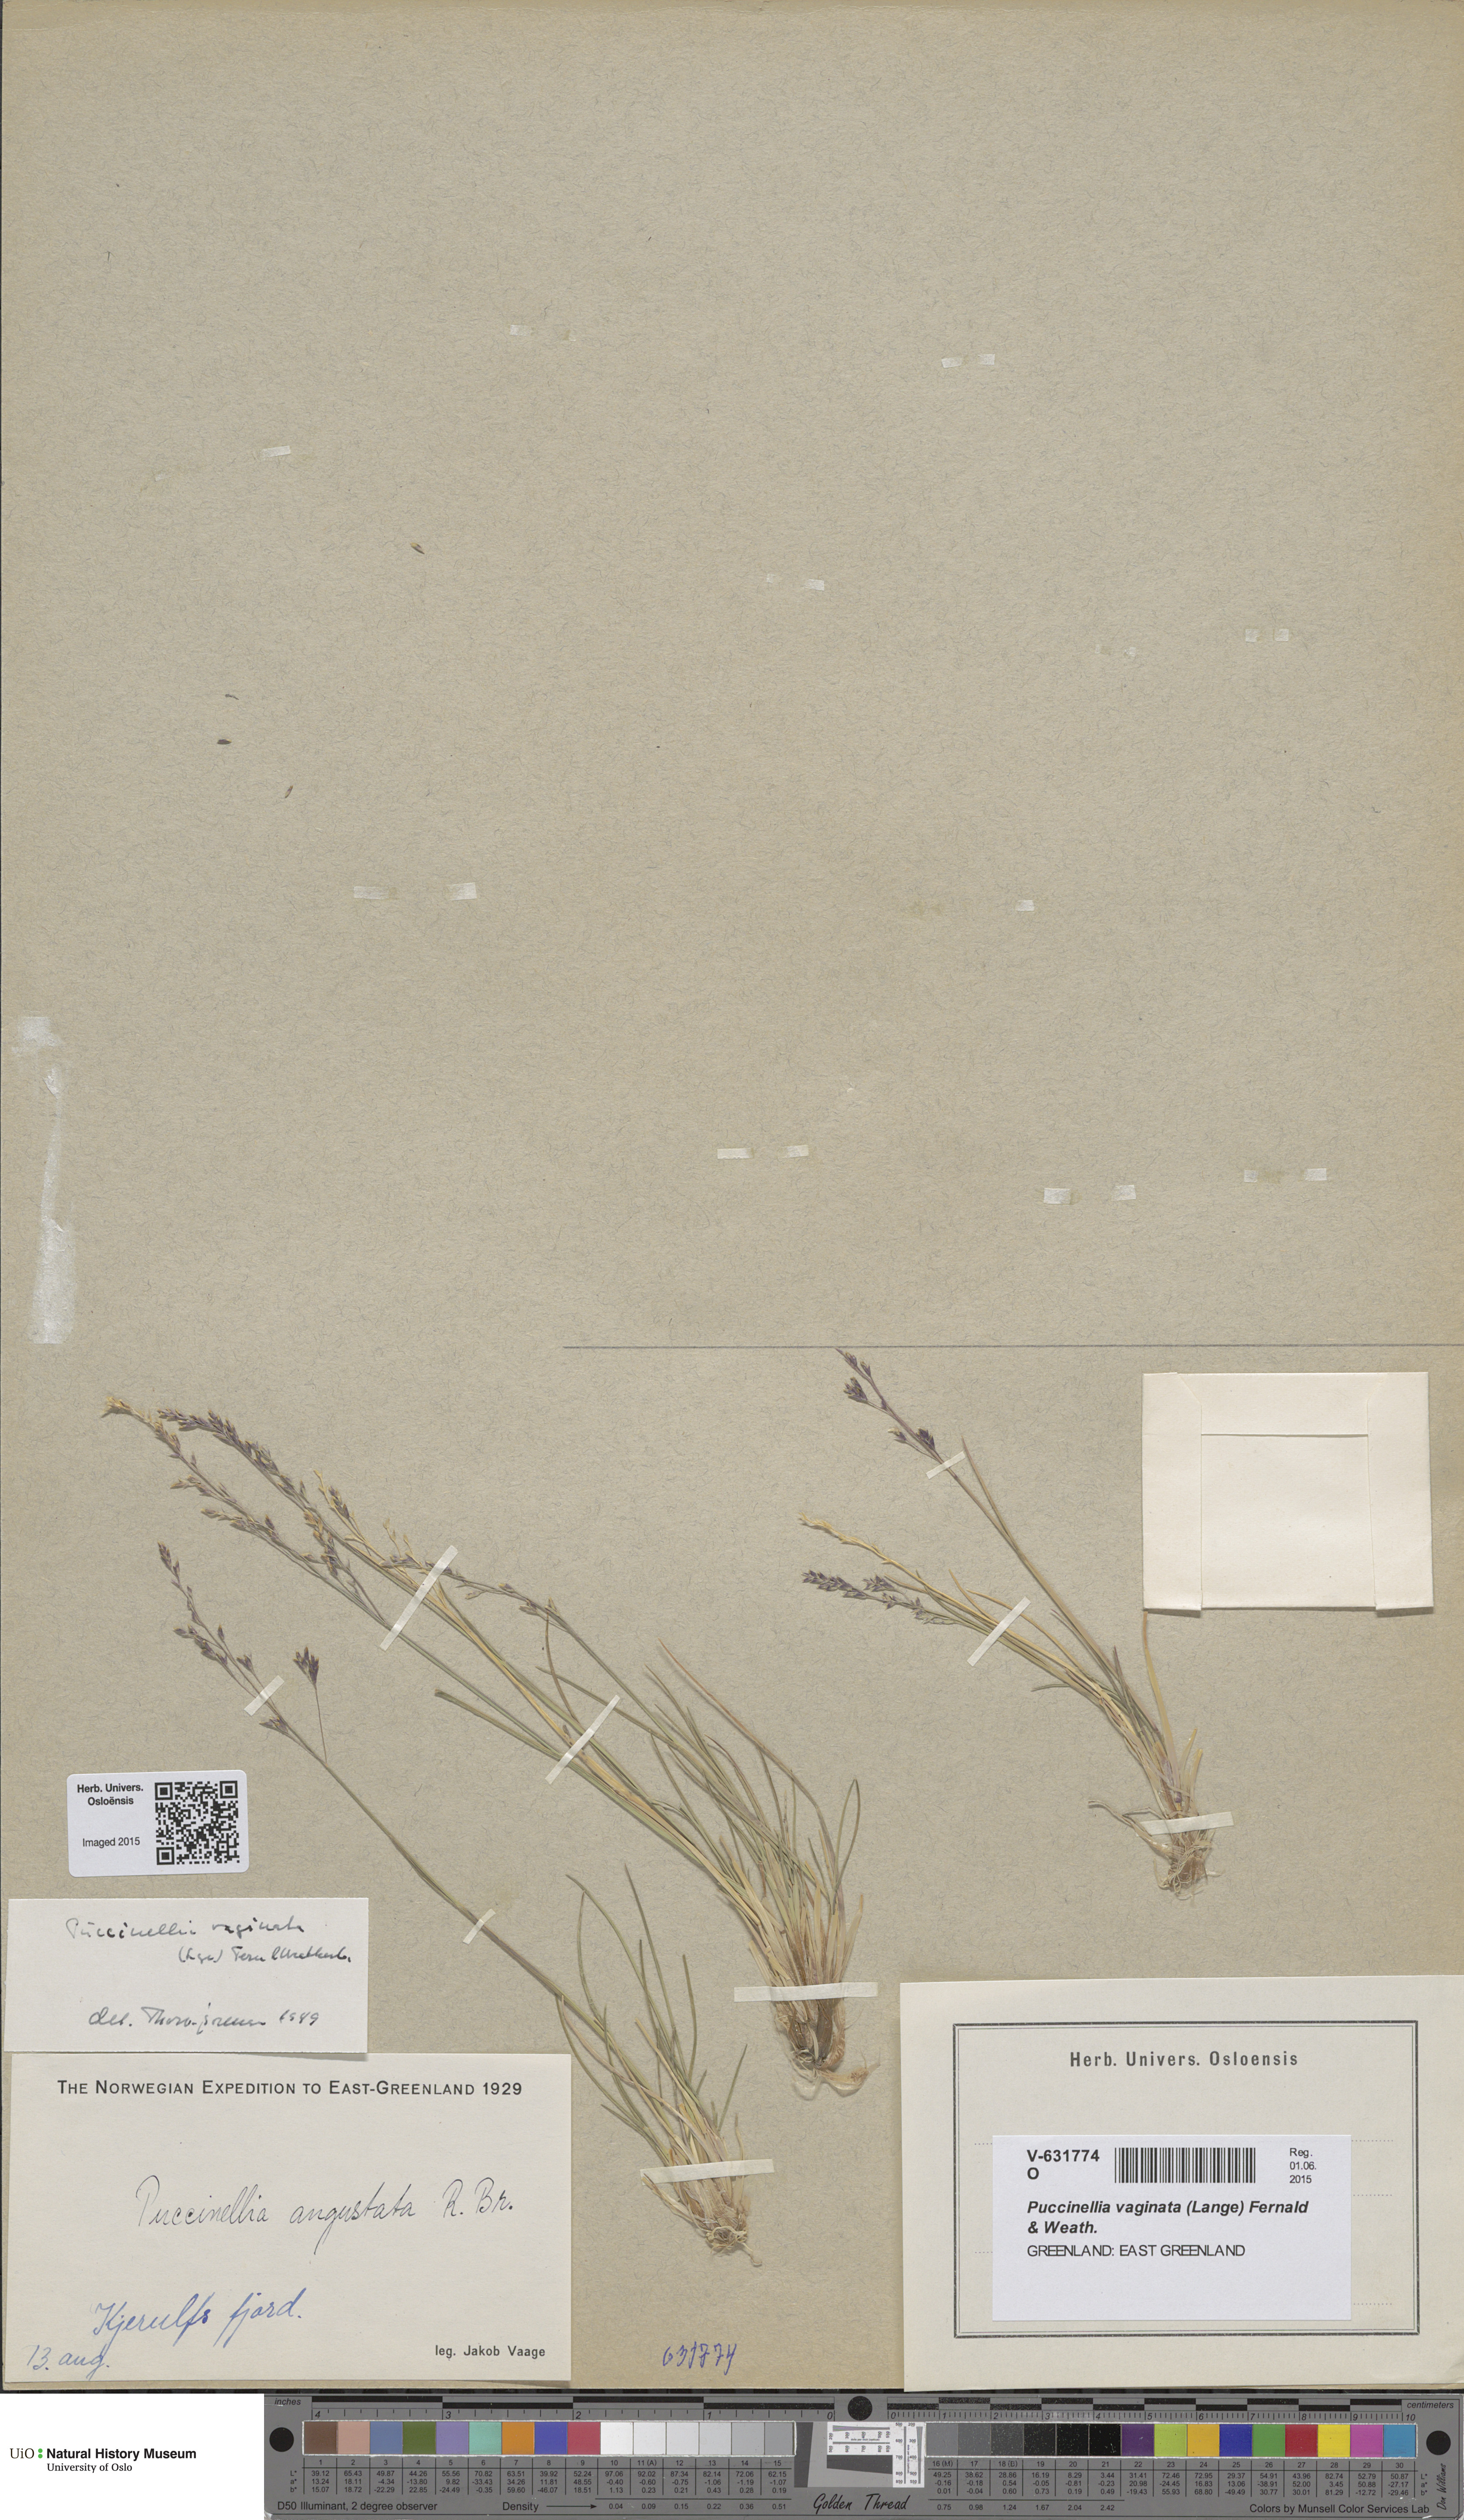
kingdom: Plantae
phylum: Tracheophyta
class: Liliopsida
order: Poales
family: Poaceae
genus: Puccinellia
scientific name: Puccinellia vaginata
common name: Arctic tussock alkaligrass
